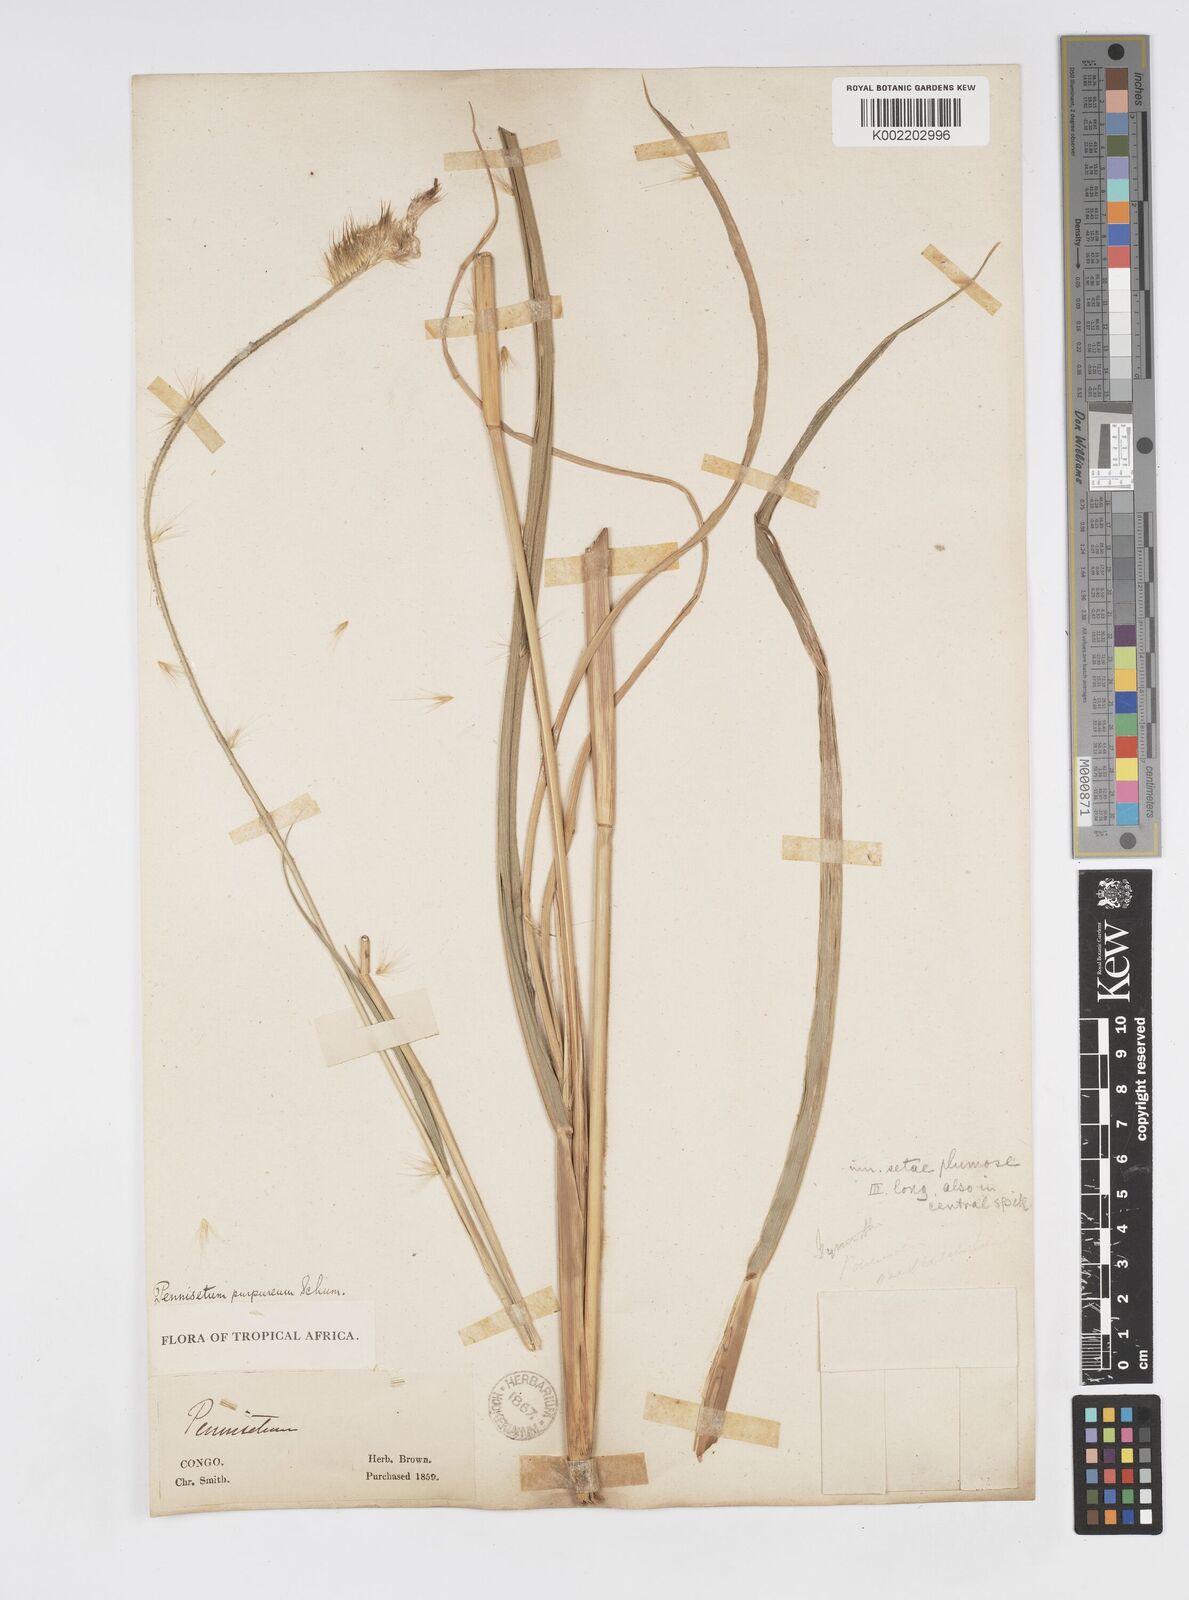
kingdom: Plantae
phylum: Tracheophyta
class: Liliopsida
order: Poales
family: Poaceae
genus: Cenchrus
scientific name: Cenchrus purpureus
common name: Elephant grass
